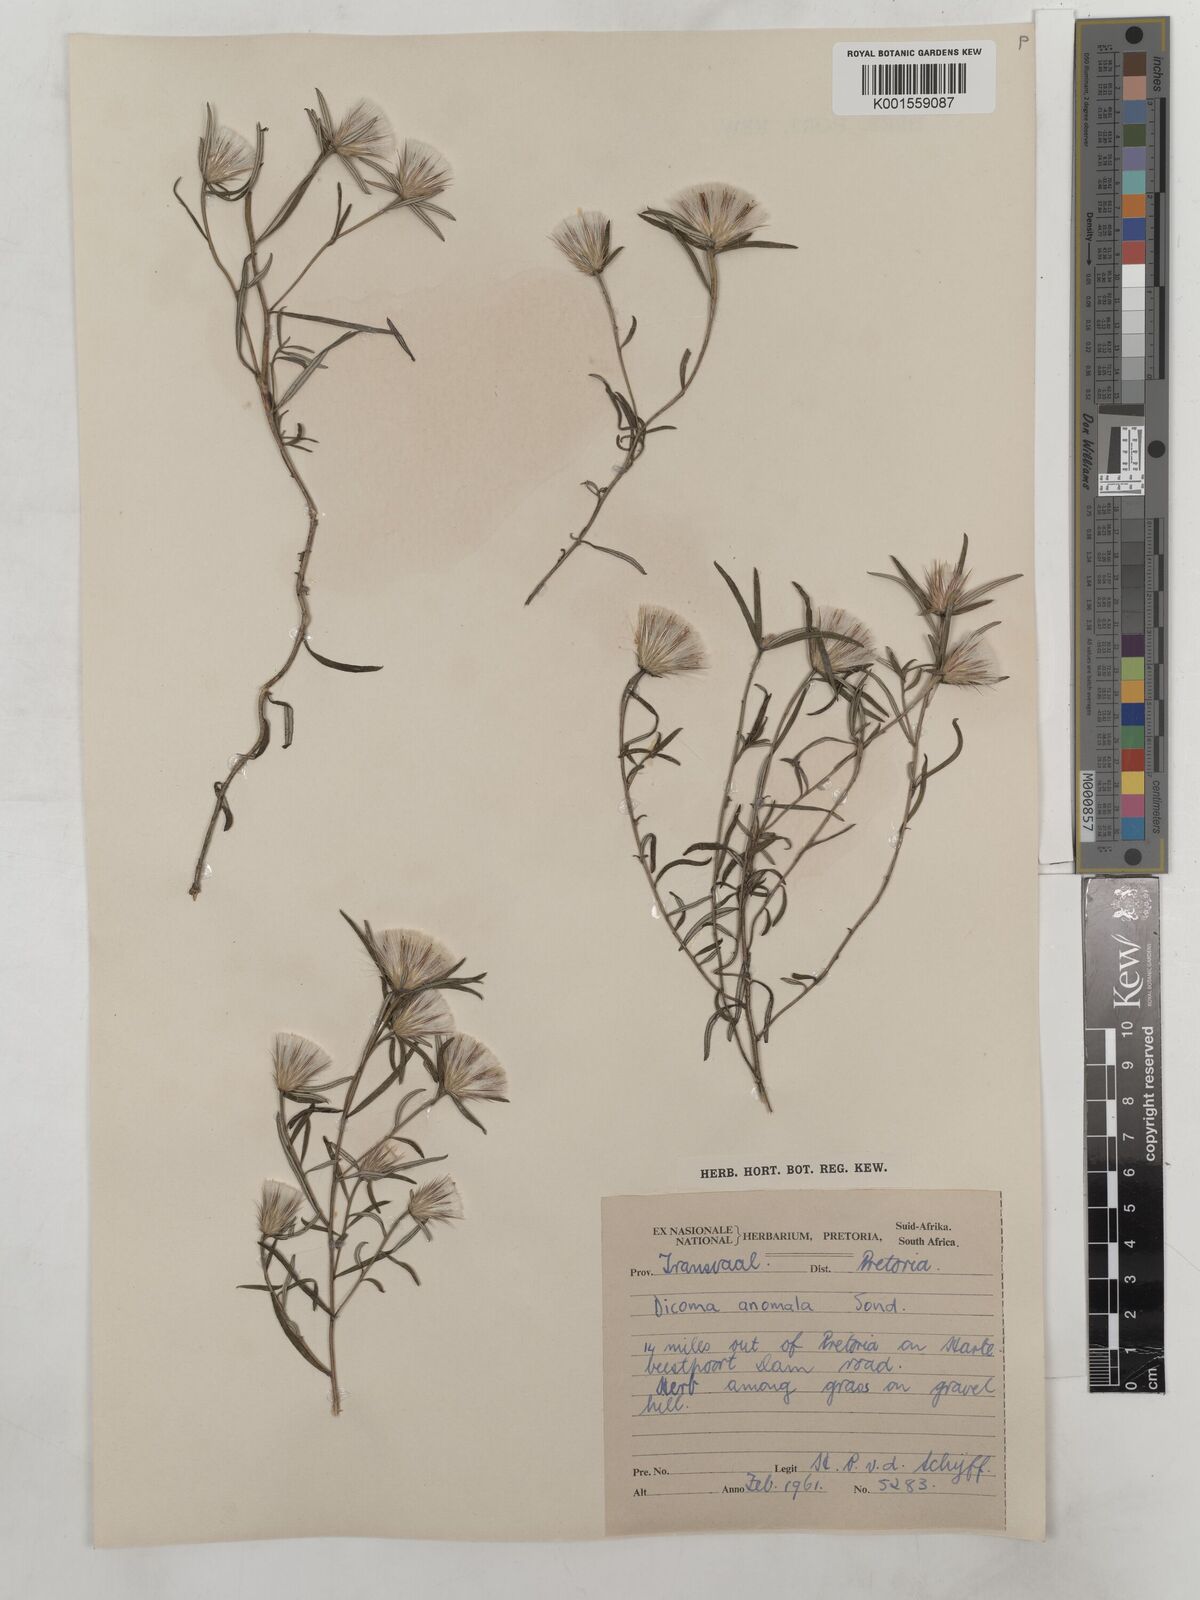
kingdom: Plantae
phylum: Tracheophyta
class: Magnoliopsida
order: Asterales
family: Asteraceae
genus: Dicoma
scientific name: Dicoma anomala
